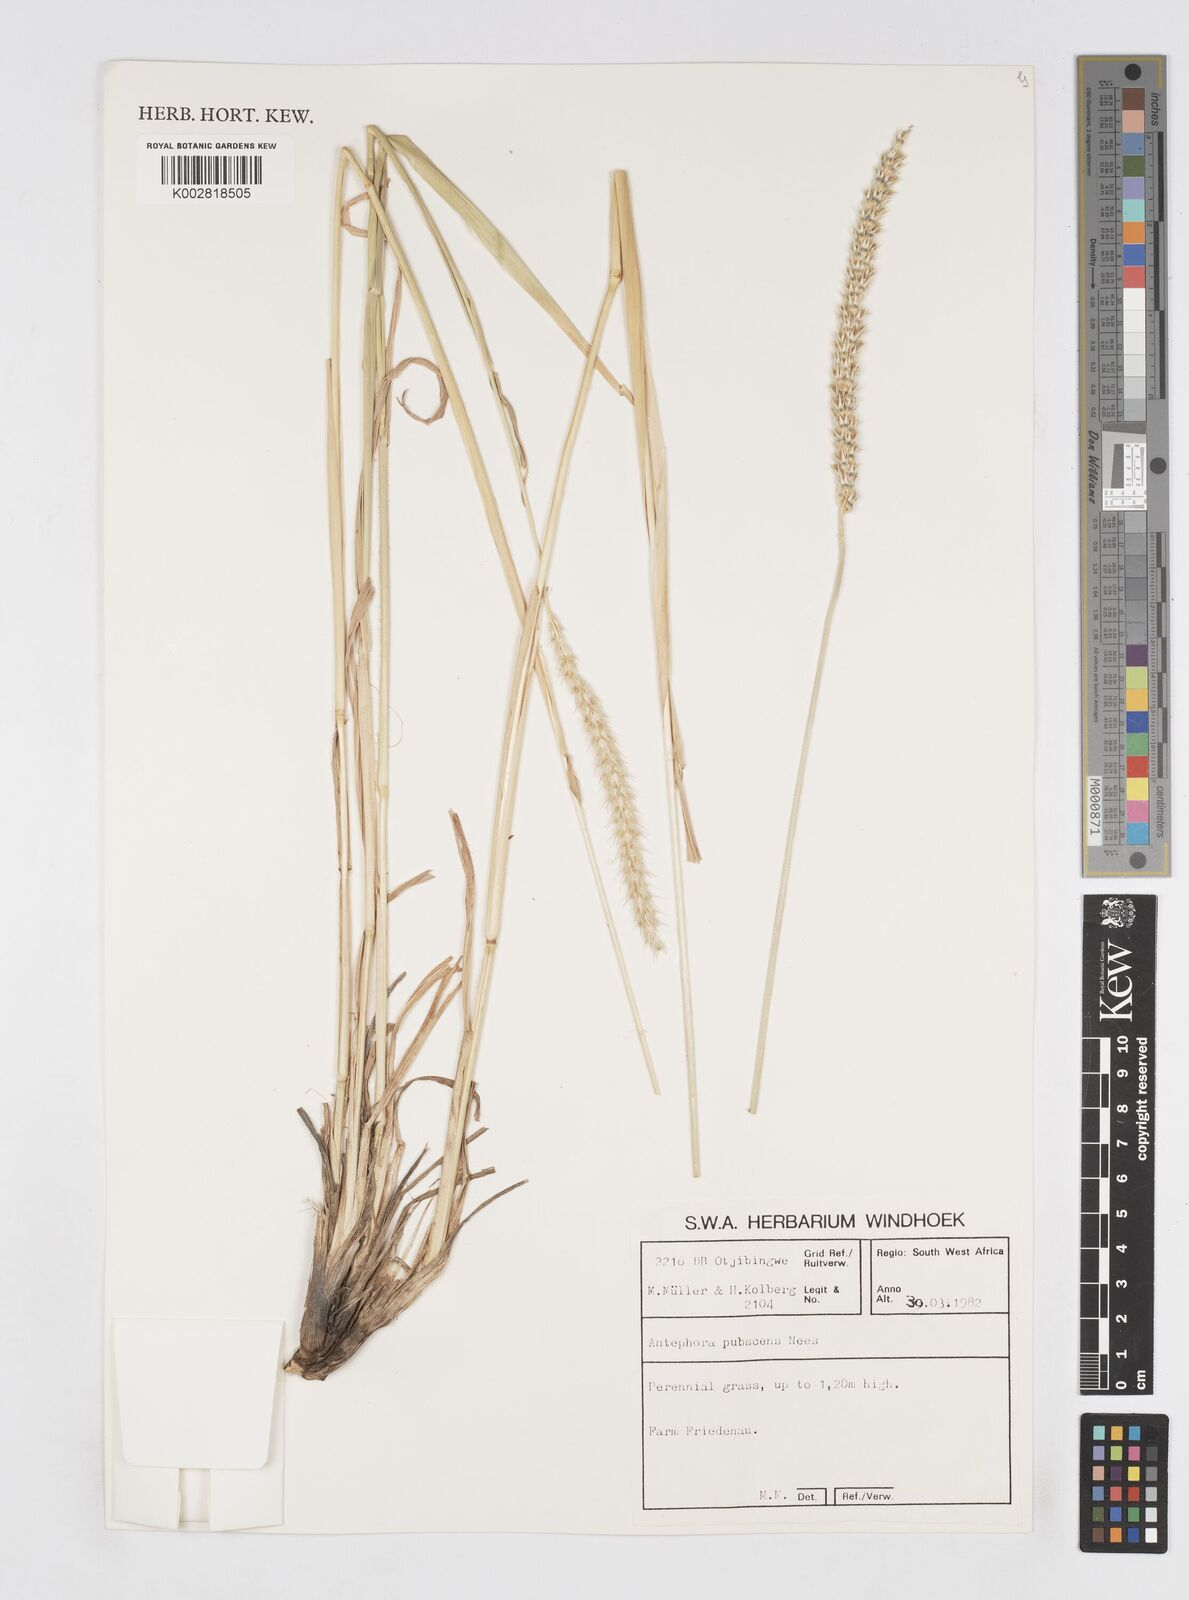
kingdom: Plantae
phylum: Tracheophyta
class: Liliopsida
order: Poales
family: Poaceae
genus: Anthephora
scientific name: Anthephora pubescens
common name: Wool grass
